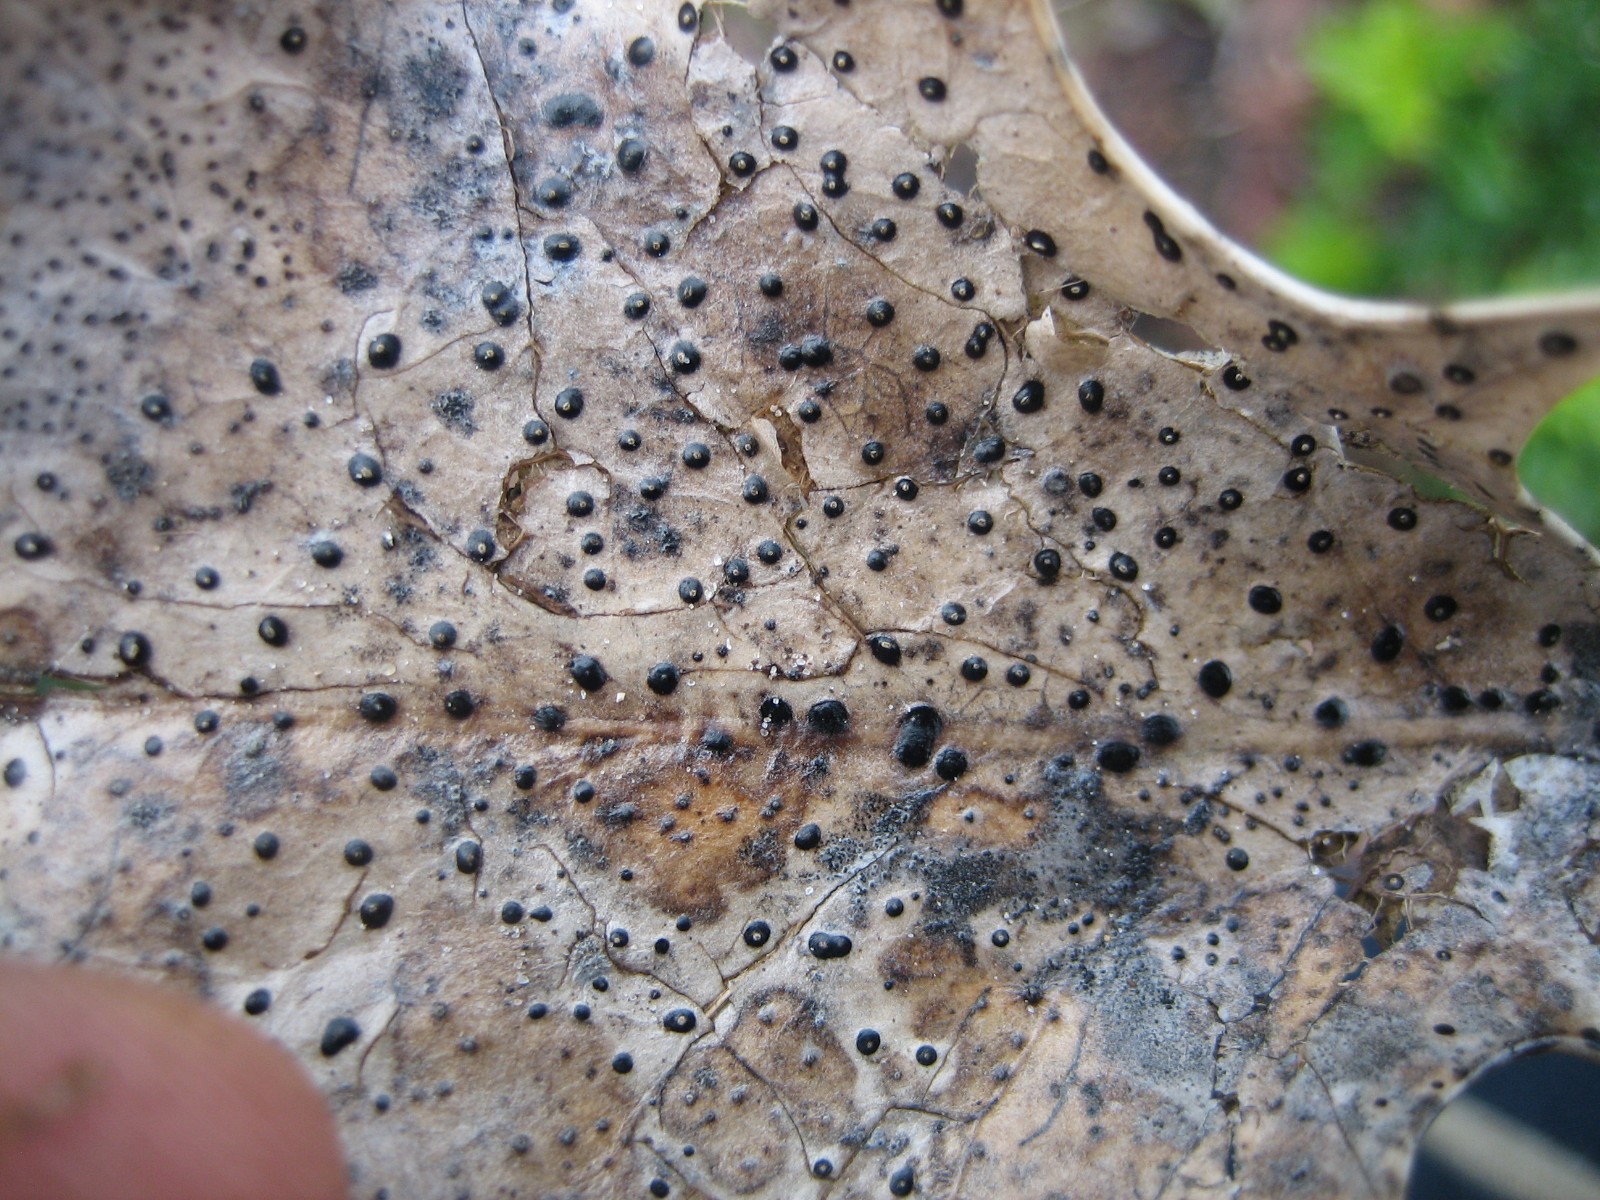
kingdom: Fungi
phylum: Ascomycota
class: Leotiomycetes
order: Phacidiales
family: Phacidiaceae
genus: Phacidium
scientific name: Phacidium lauri
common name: kristtorn-tandskive
